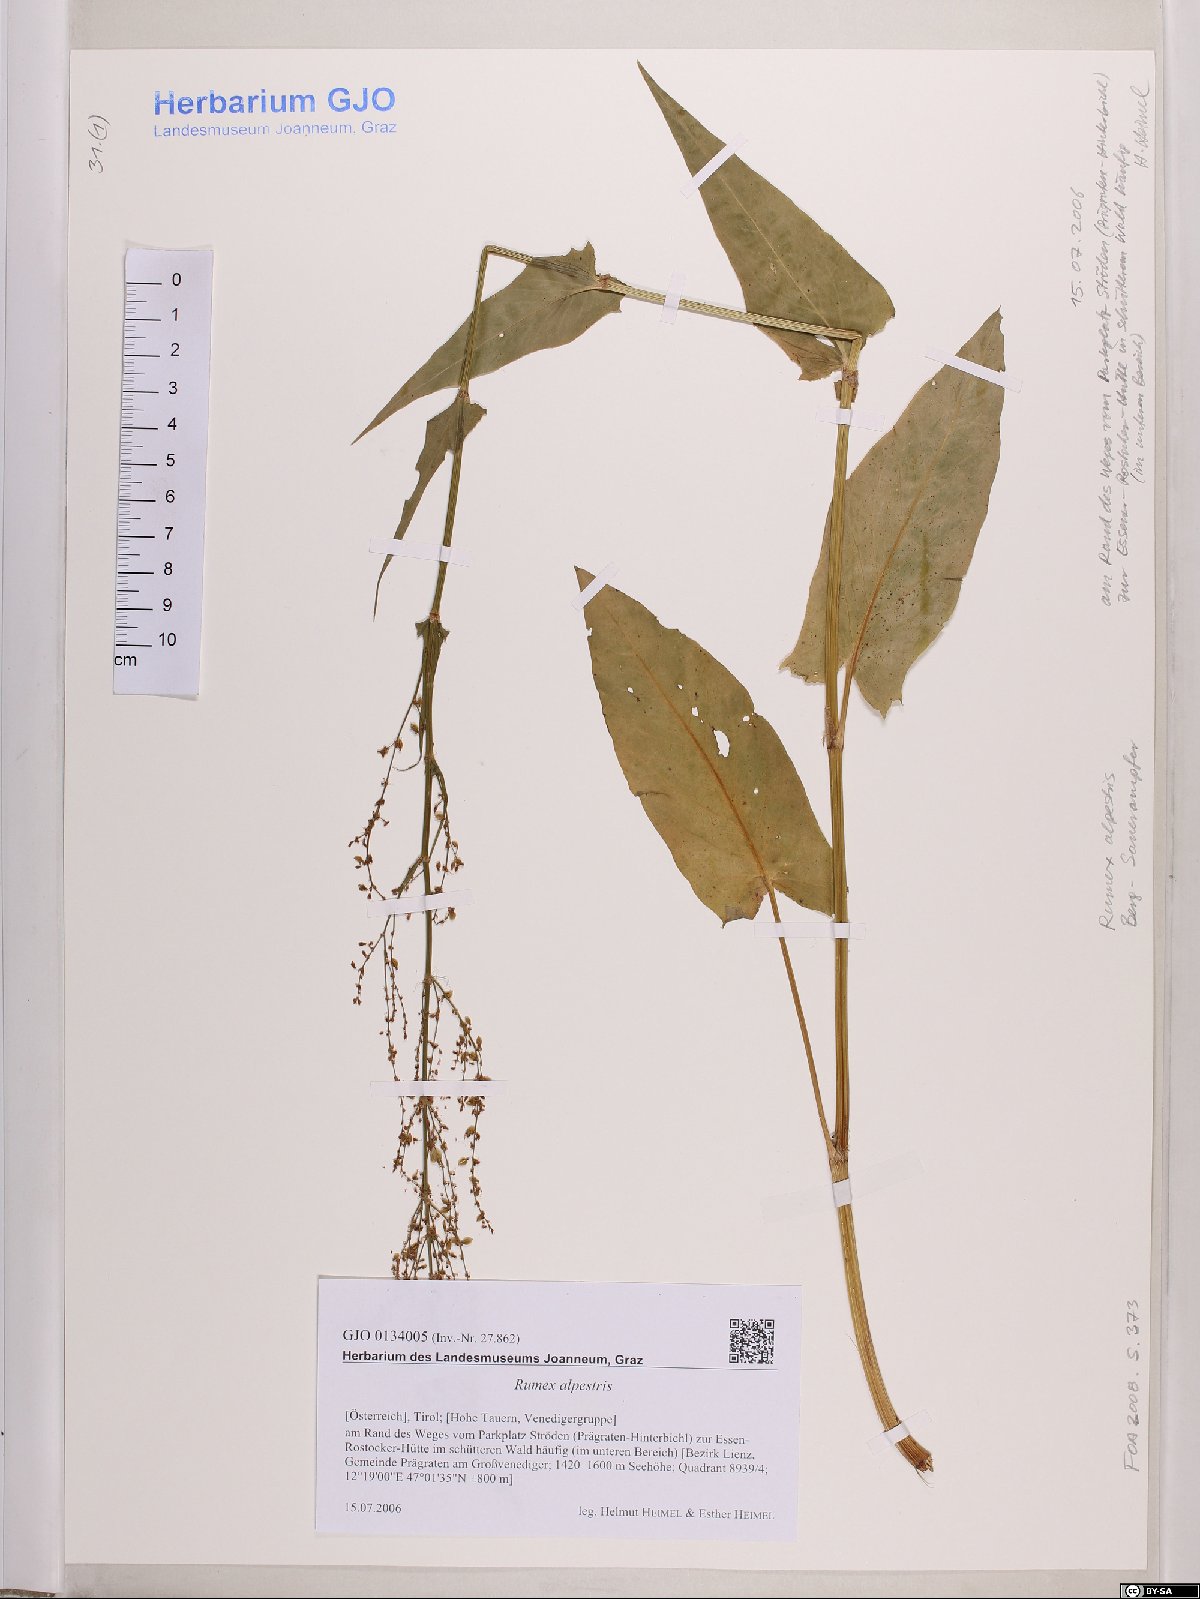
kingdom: Plantae
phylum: Tracheophyta
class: Magnoliopsida
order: Caryophyllales
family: Polygonaceae
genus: Rumex
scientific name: Rumex scutatus
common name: French sorrel
